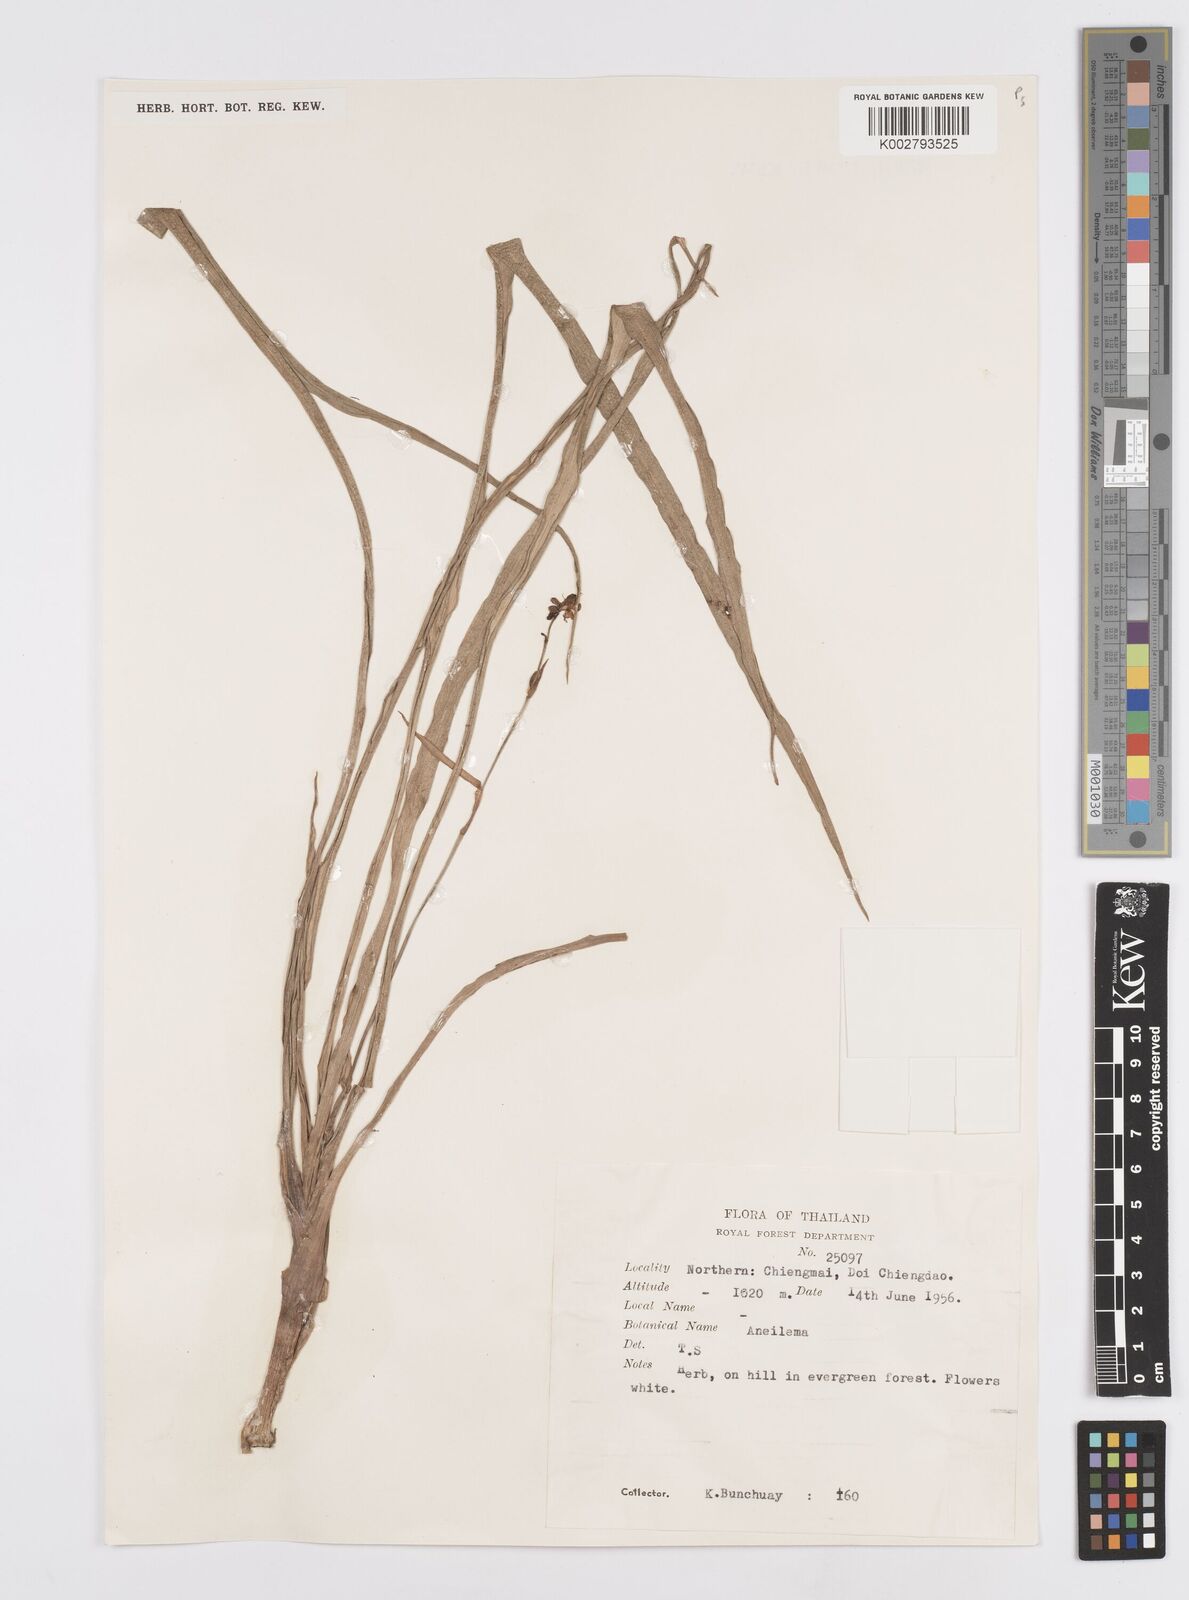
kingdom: Plantae
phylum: Tracheophyta
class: Liliopsida
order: Commelinales
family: Commelinaceae
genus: Murdannia
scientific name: Murdannia
